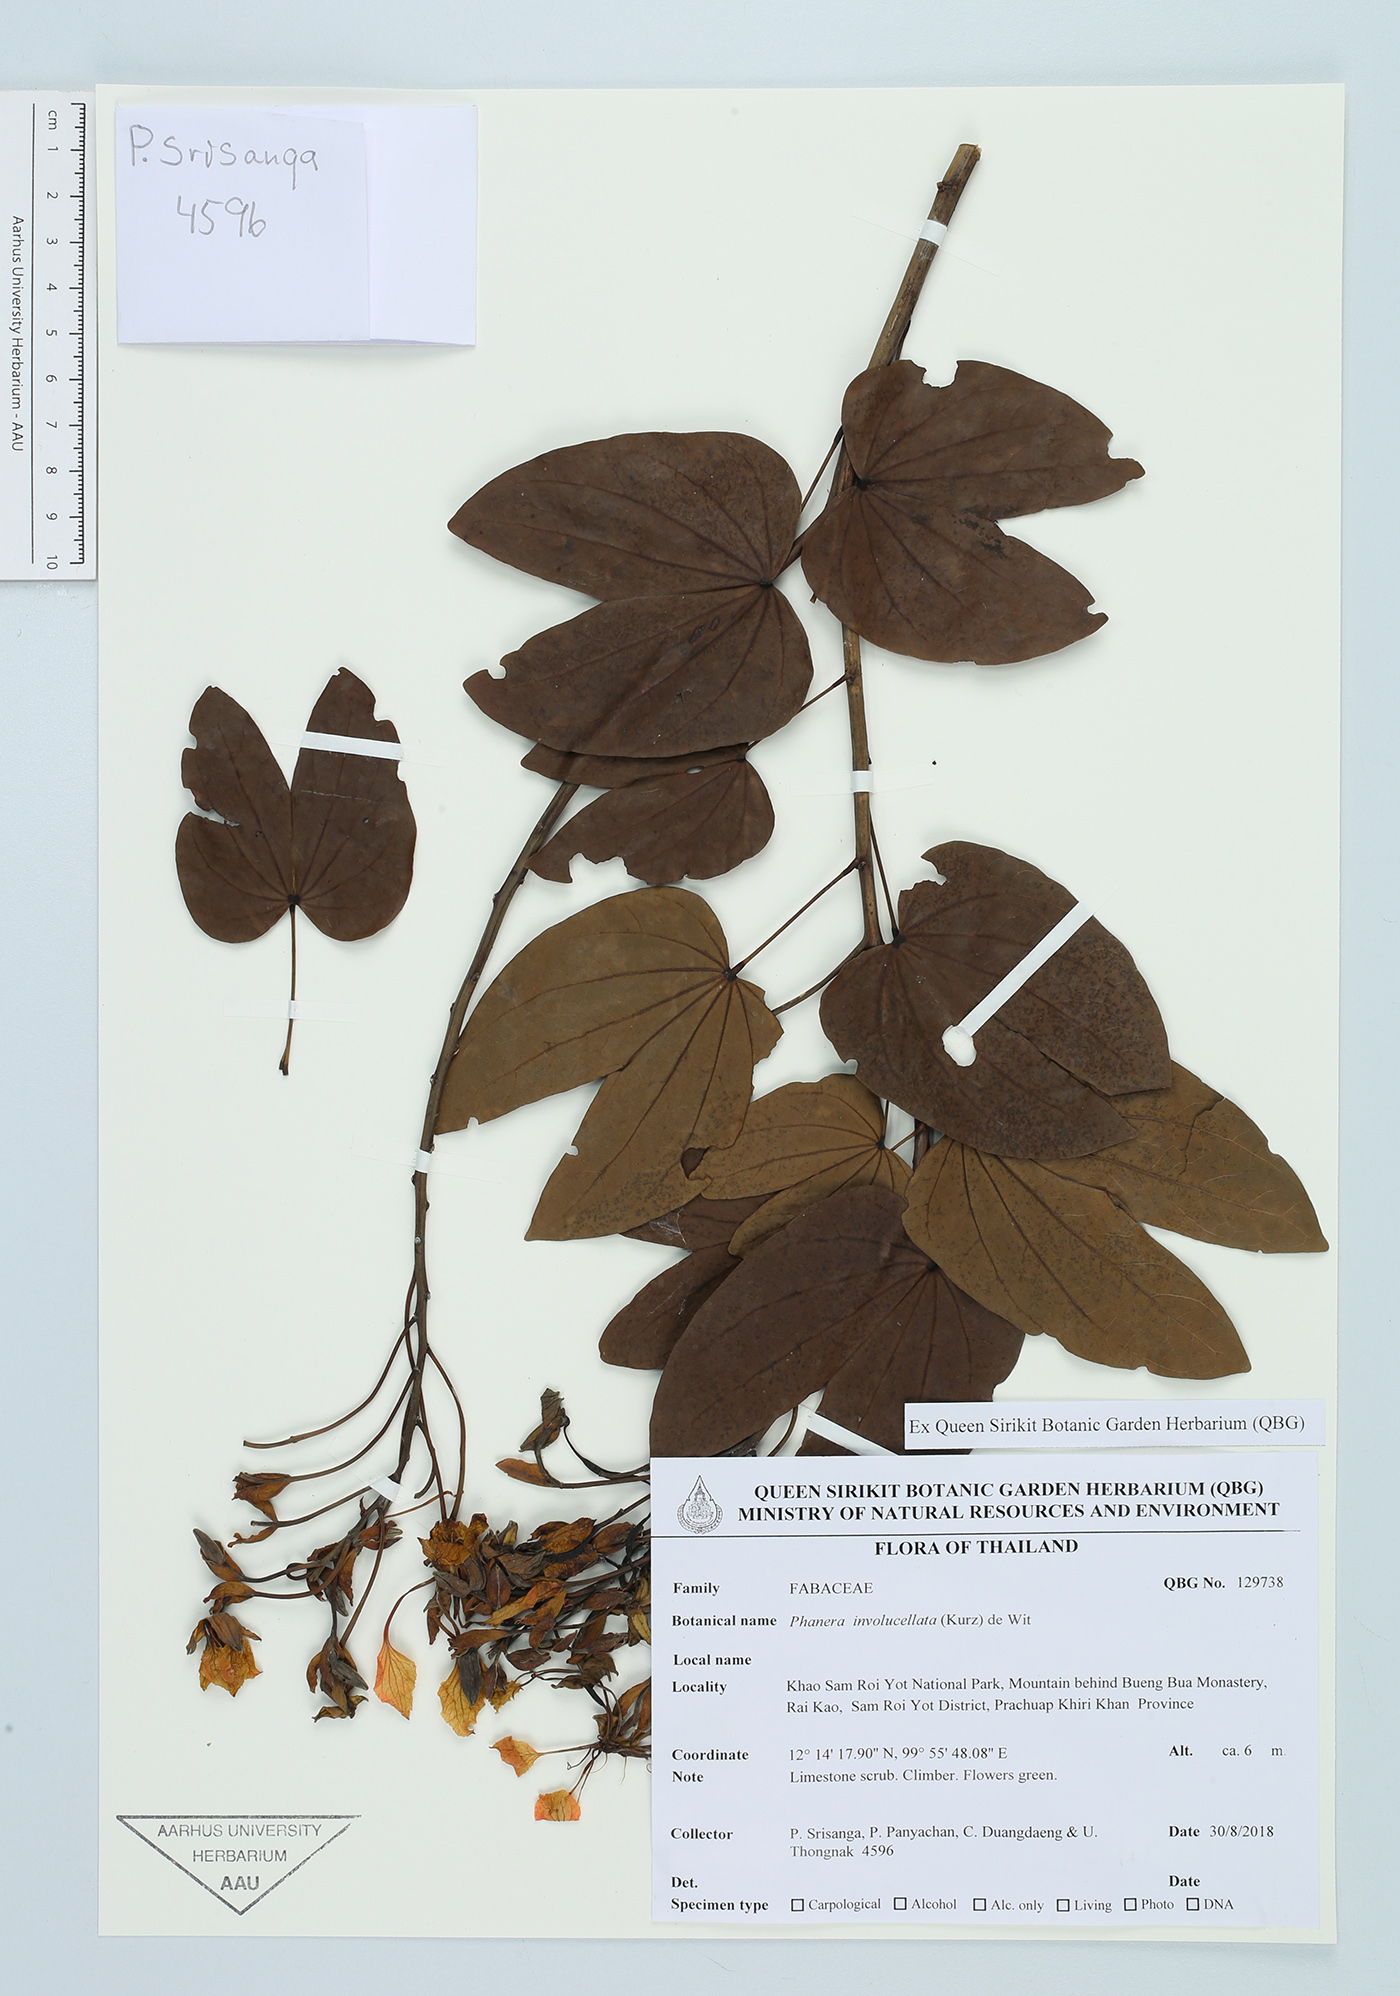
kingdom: Plantae
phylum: Tracheophyta
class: Magnoliopsida
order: Fabales
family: Fabaceae
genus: Phanera
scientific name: Phanera involucellata
